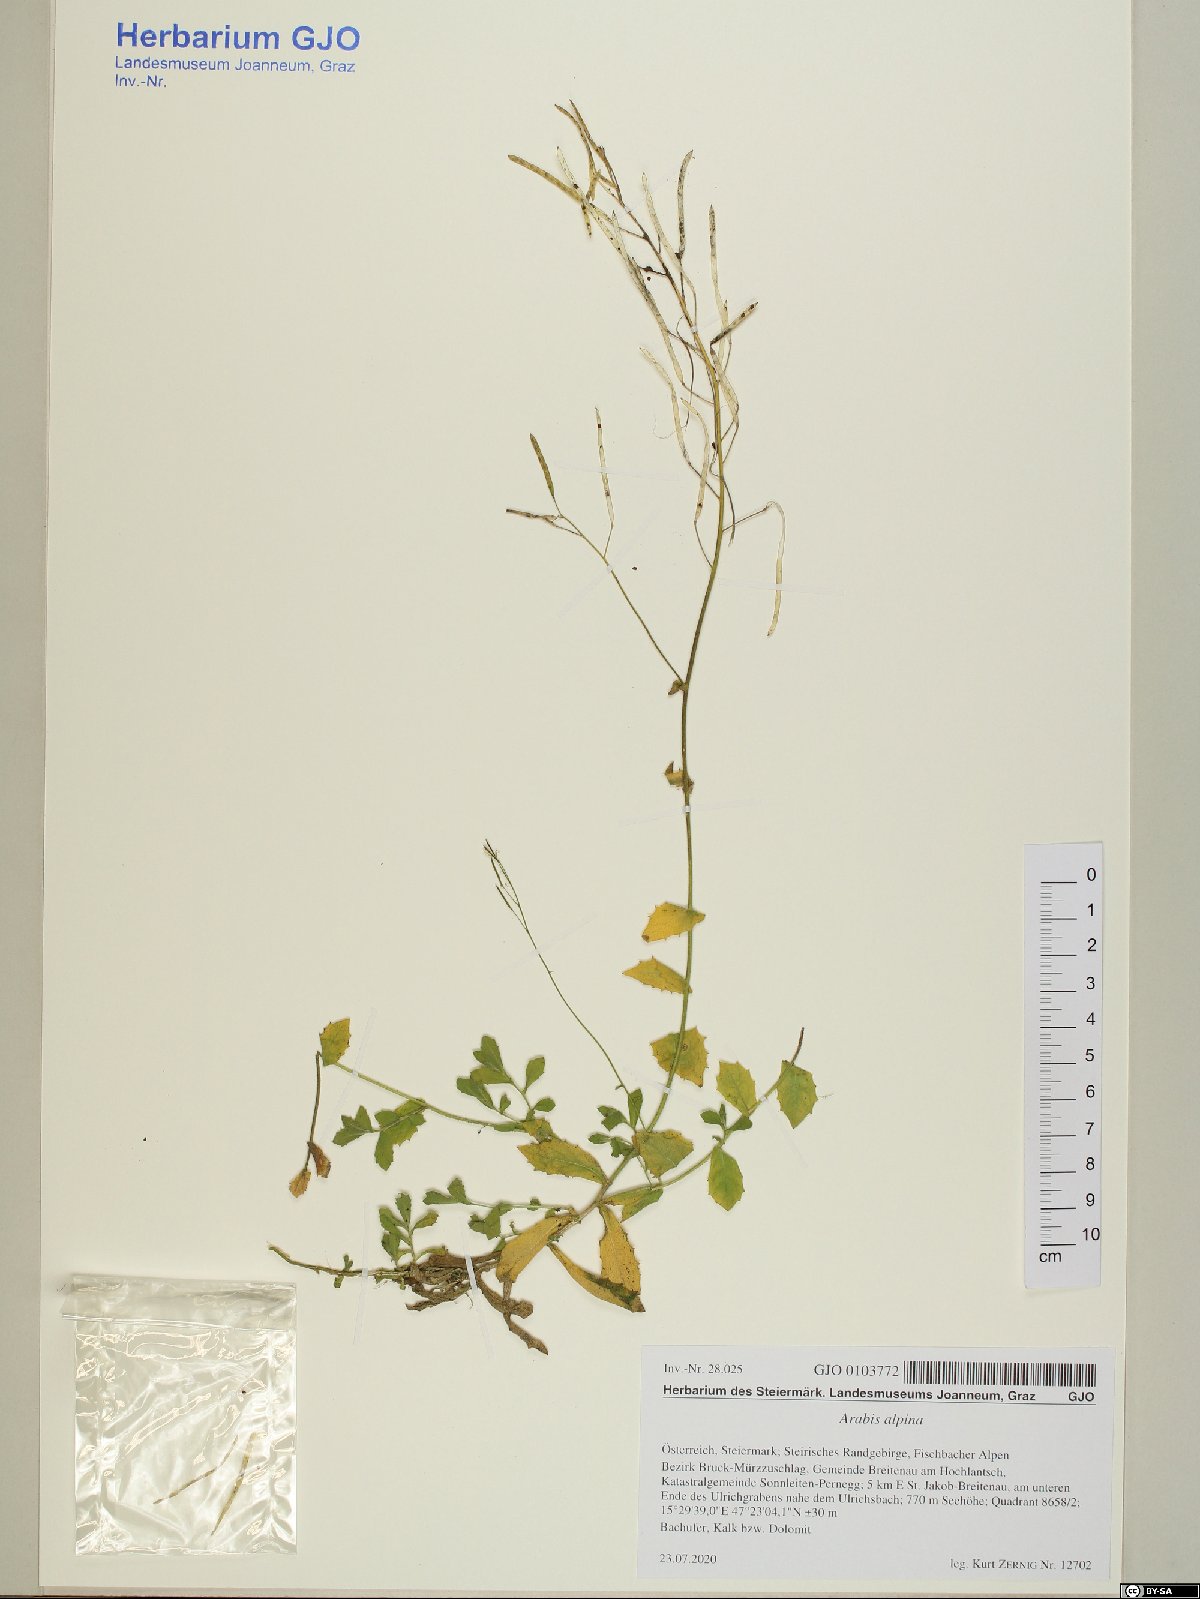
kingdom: Plantae
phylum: Tracheophyta
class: Magnoliopsida
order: Brassicales
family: Brassicaceae
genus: Arabis
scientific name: Arabis alpina
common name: Alpine rock-cress
